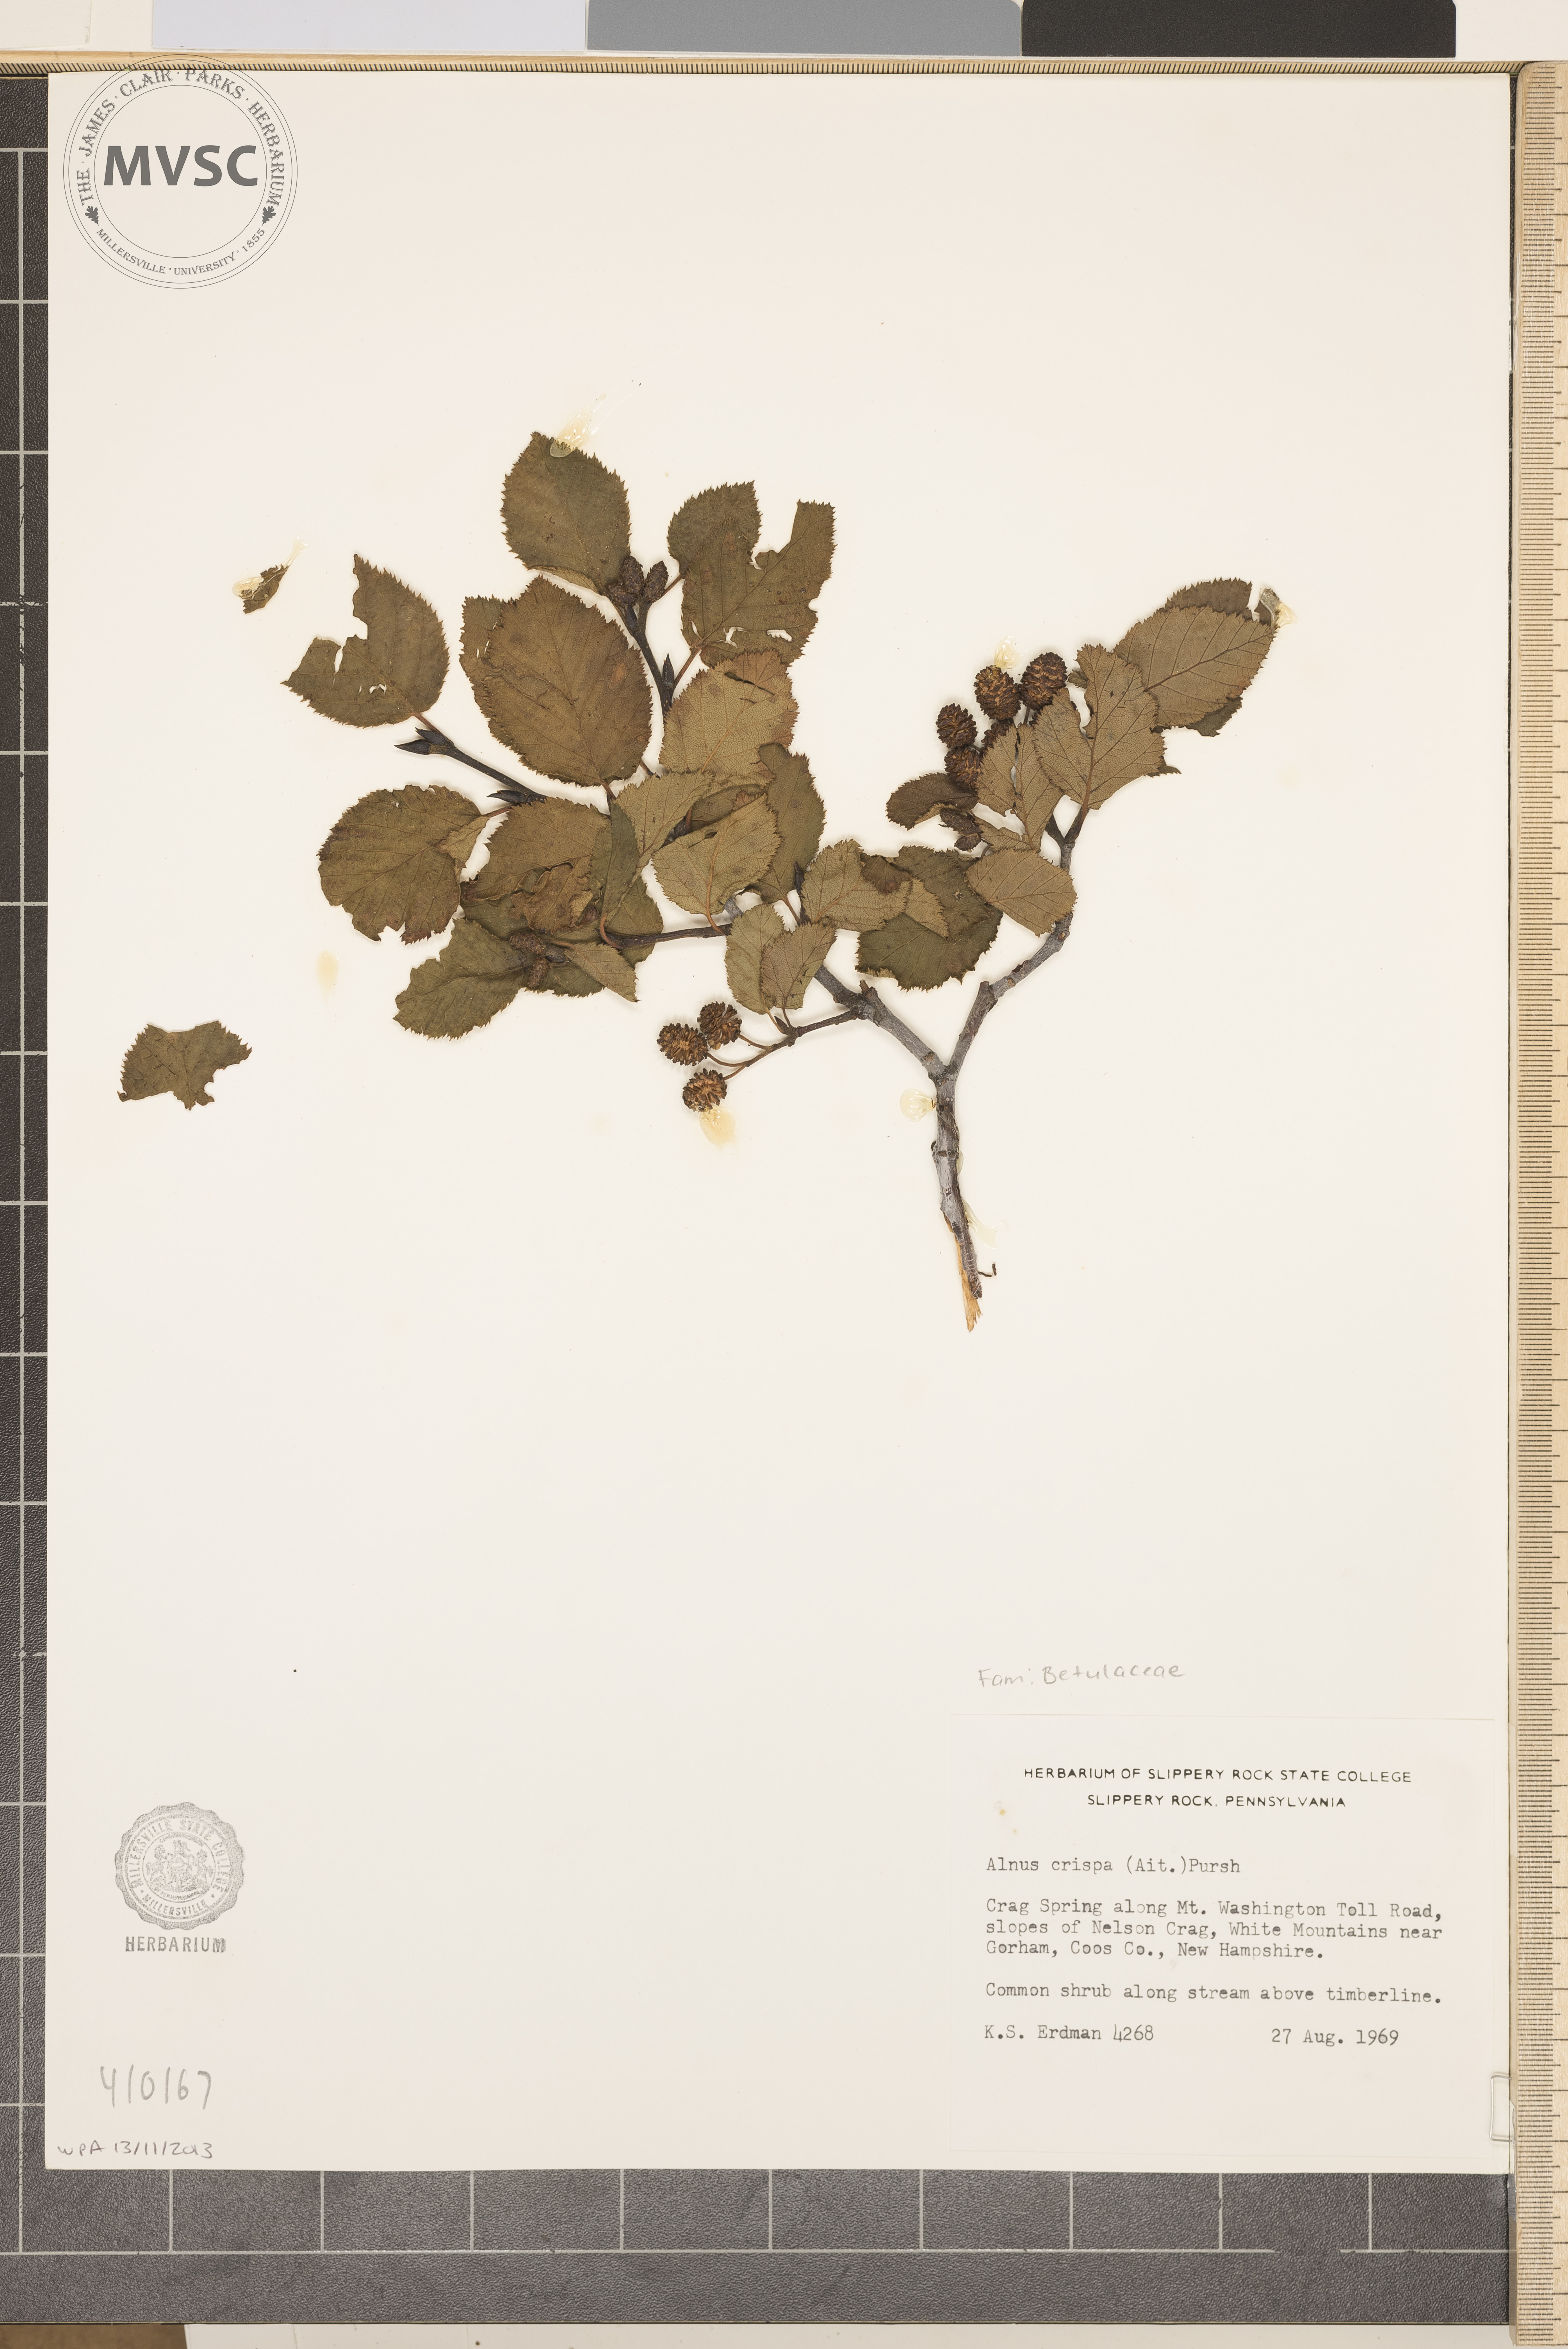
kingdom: Plantae
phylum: Tracheophyta
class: Magnoliopsida
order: Fagales
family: Betulaceae
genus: Alnus
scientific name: Alnus crispa
